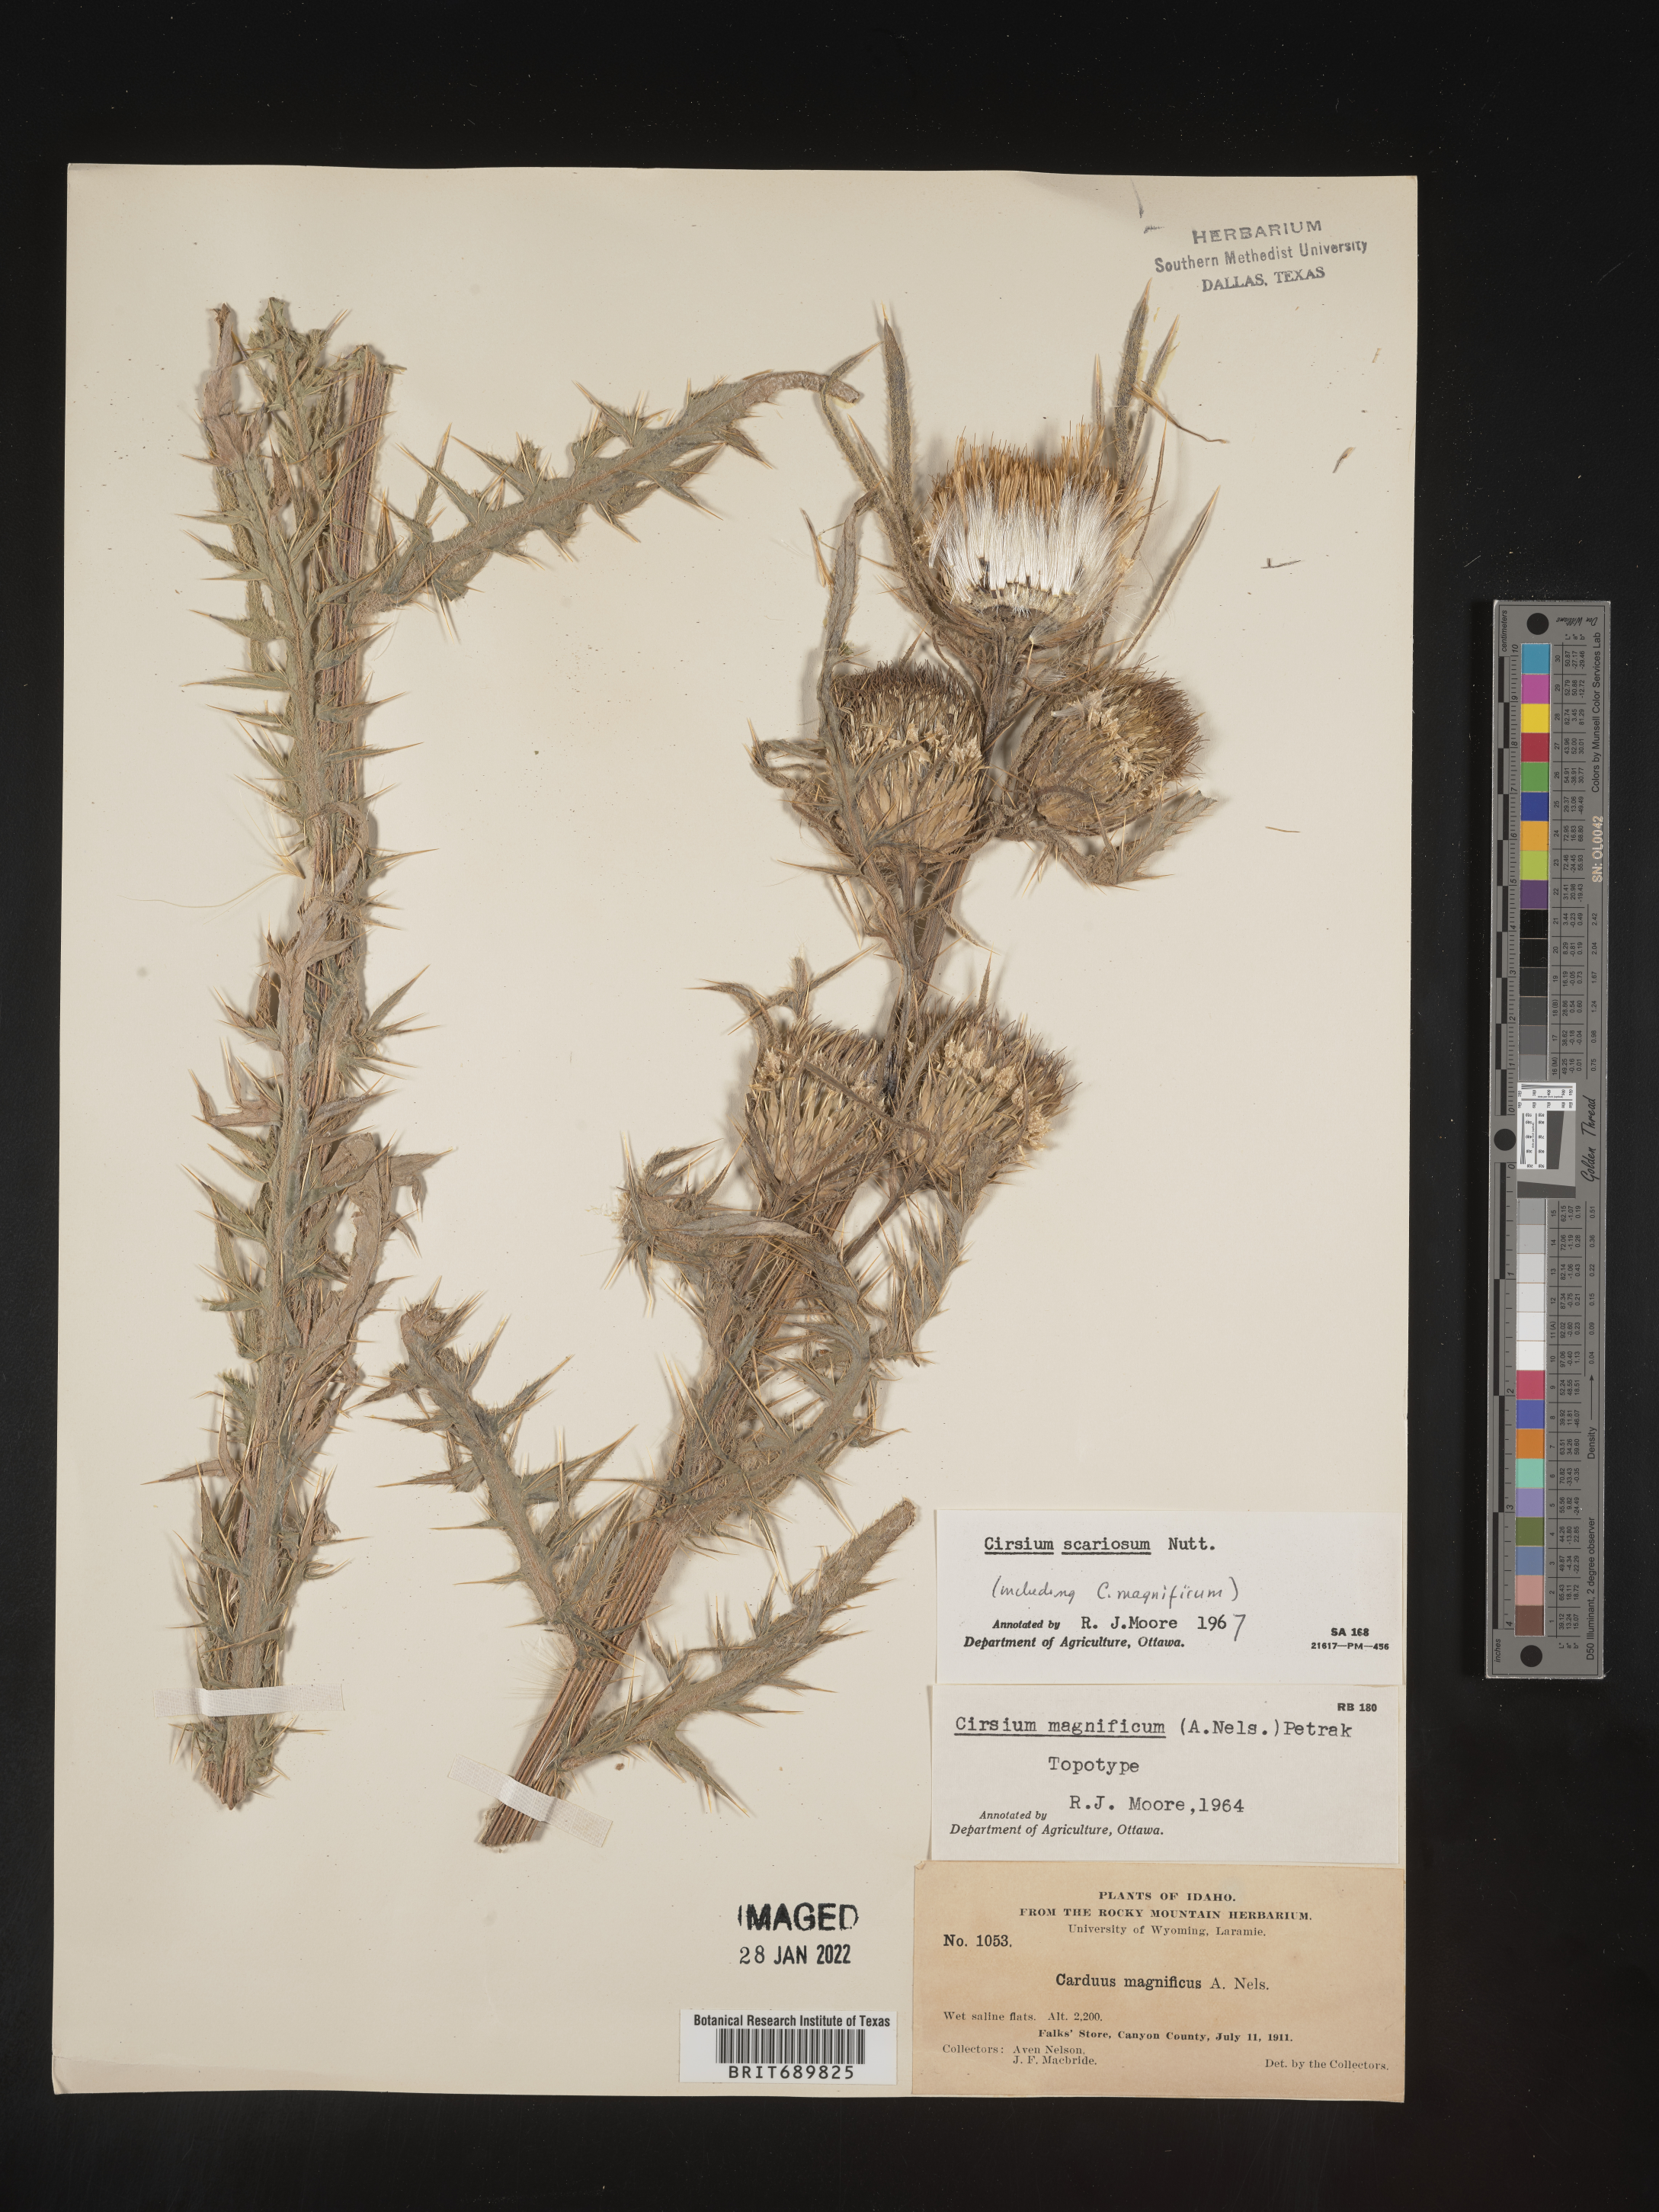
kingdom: Plantae
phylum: Tracheophyta
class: Magnoliopsida
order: Asterales
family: Asteraceae
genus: Cirsium
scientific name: Cirsium scariosum
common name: Meadow thistle
